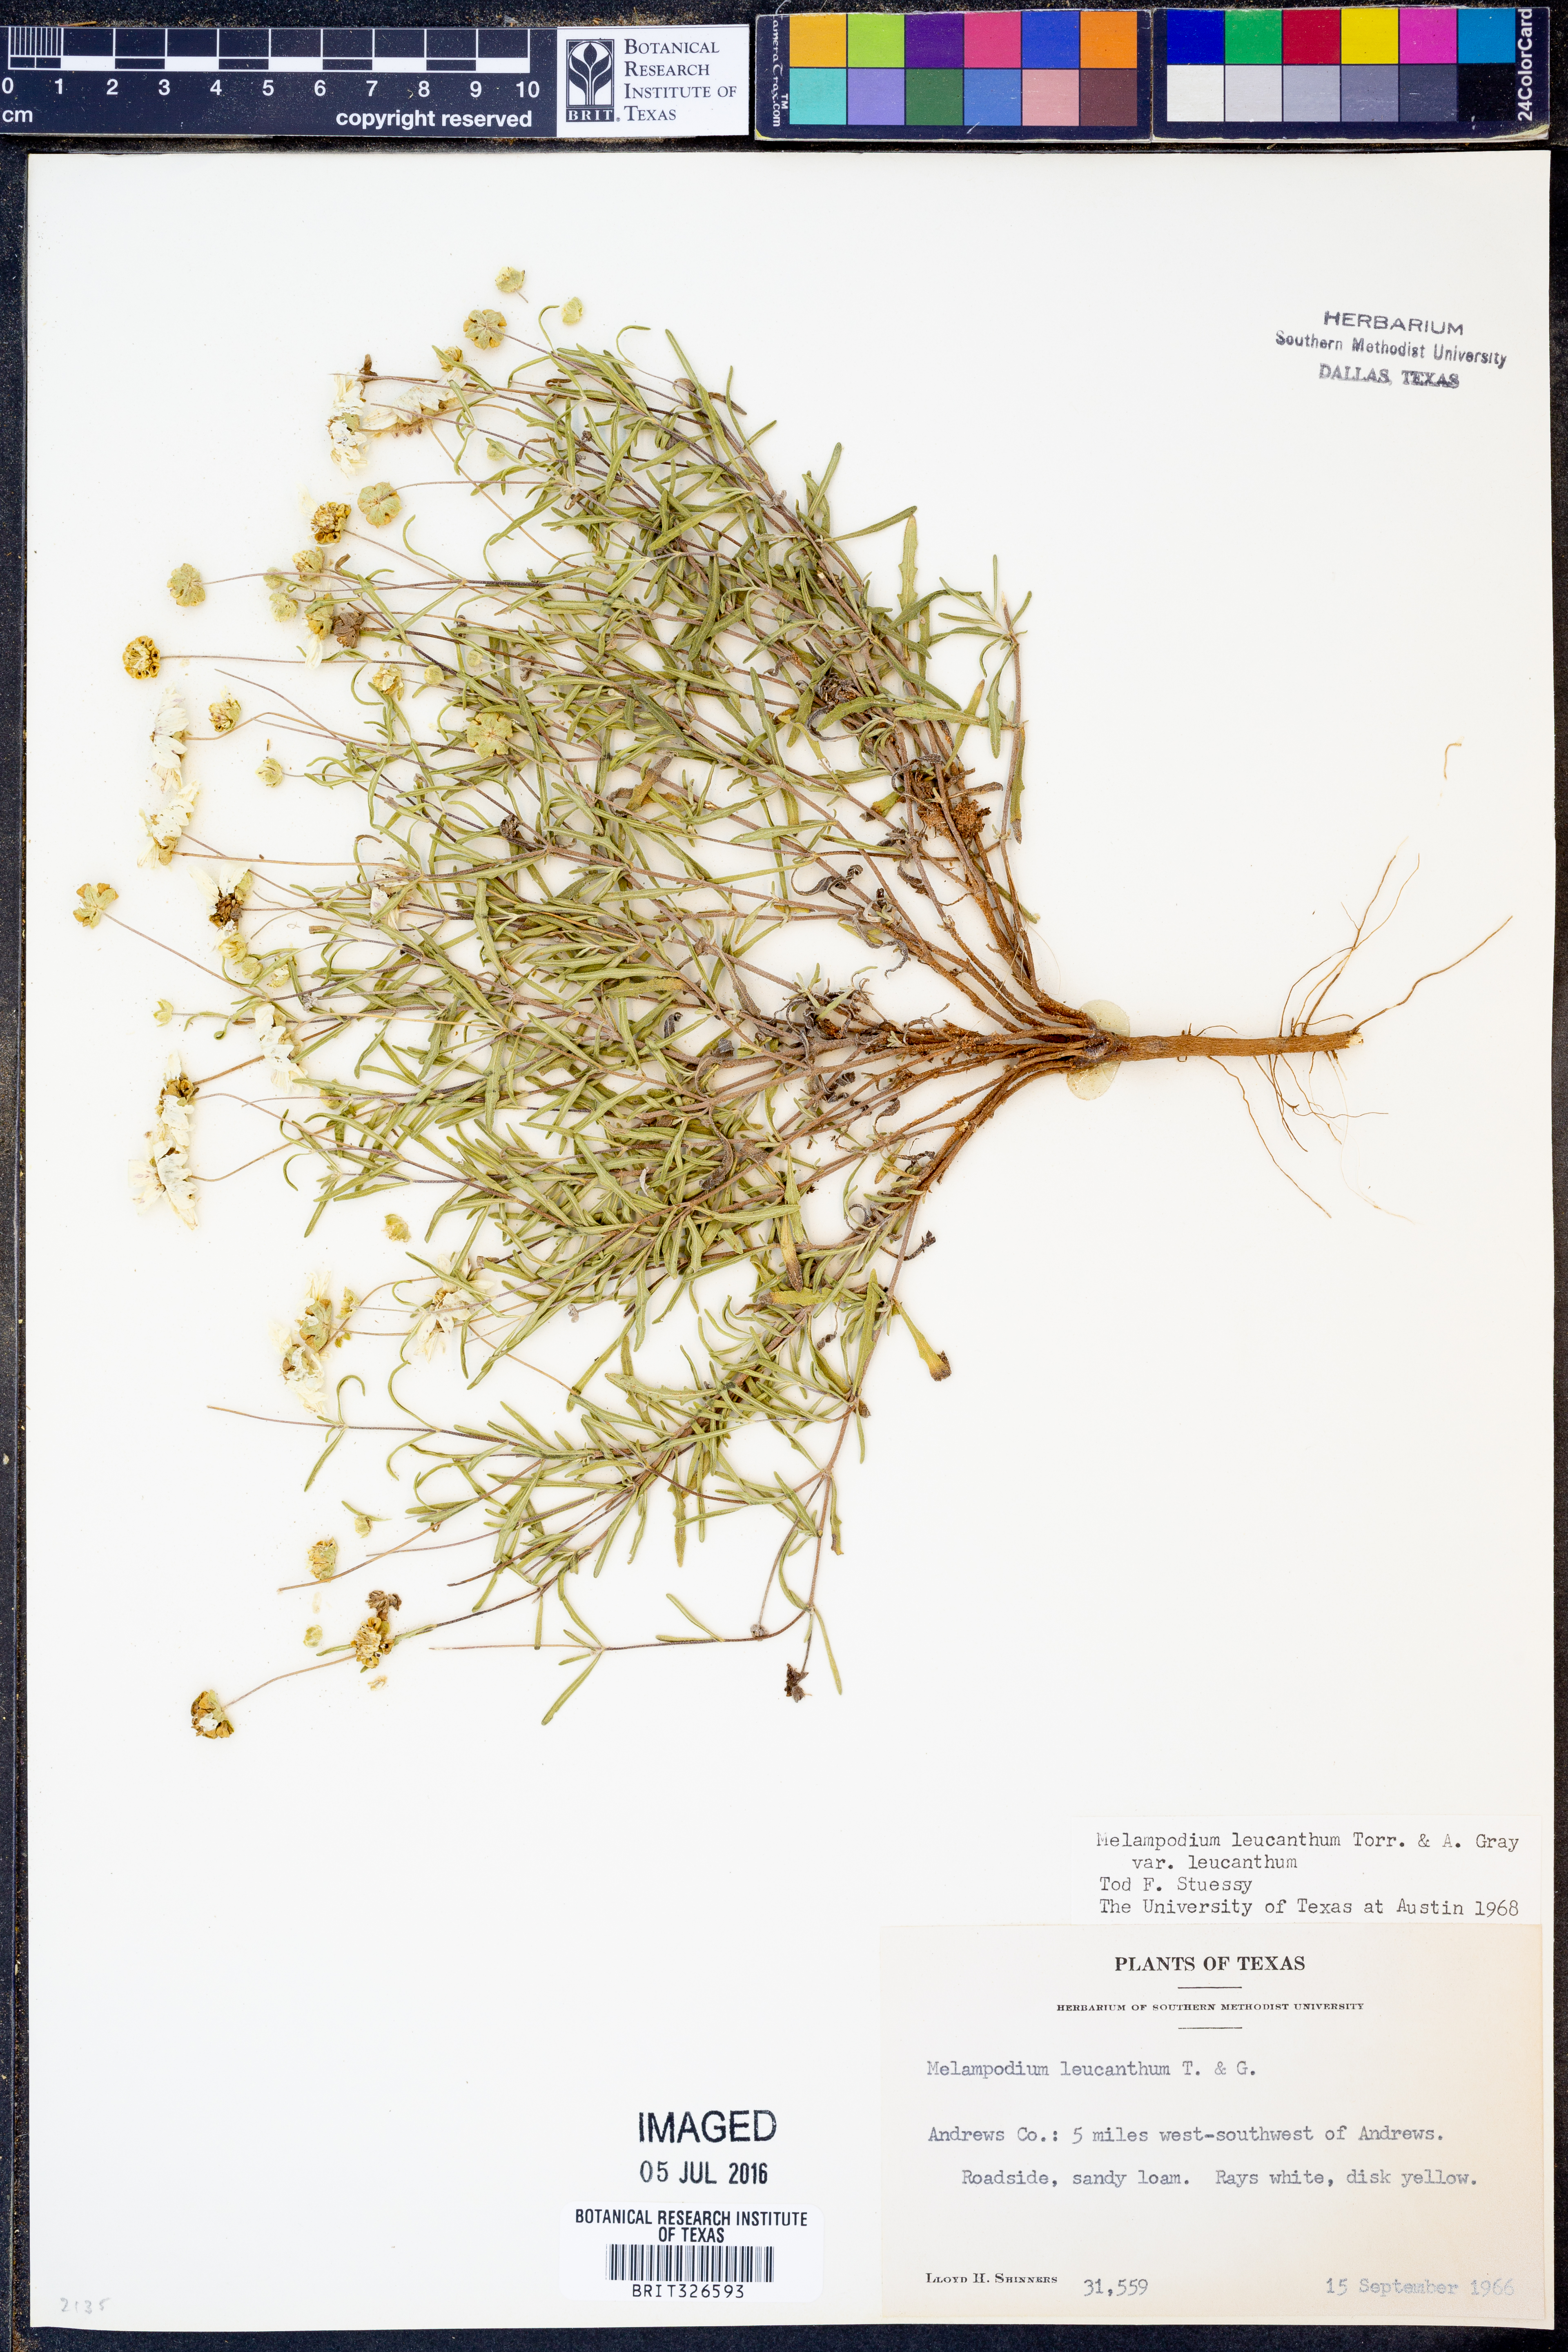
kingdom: Plantae
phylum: Tracheophyta
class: Magnoliopsida
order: Asterales
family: Asteraceae
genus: Melampodium
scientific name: Melampodium leucanthum
